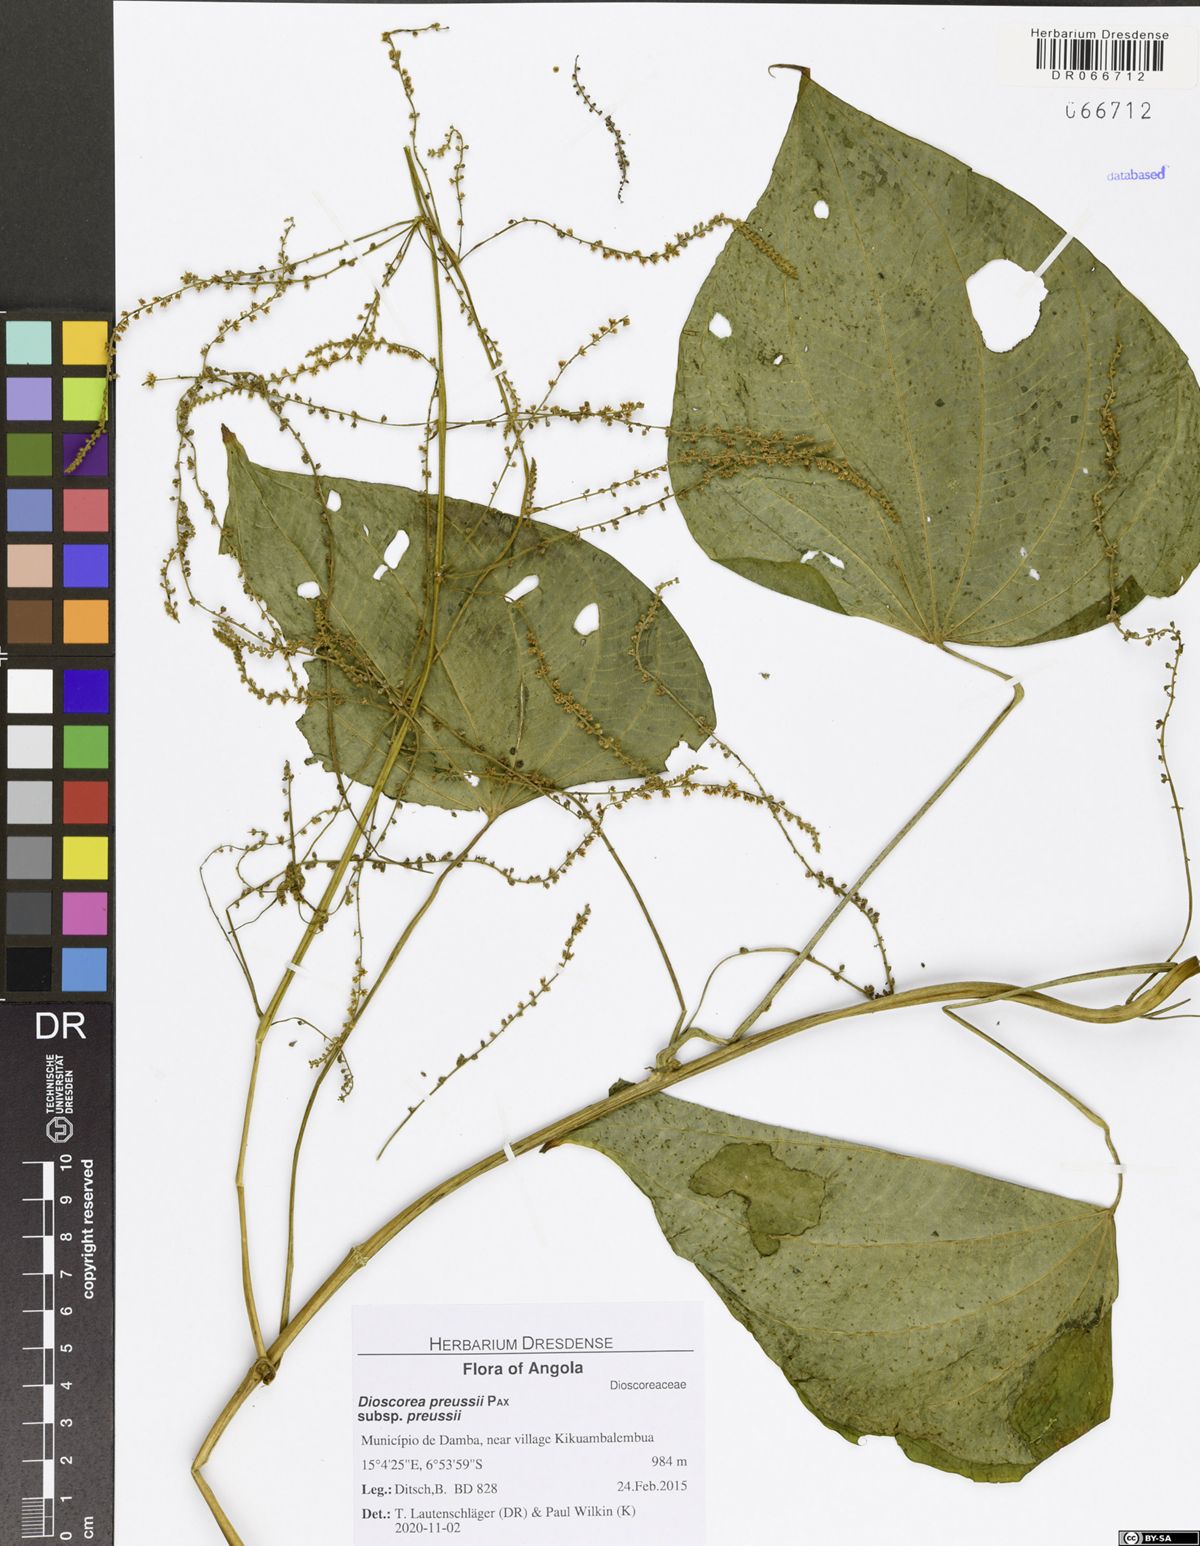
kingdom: Plantae
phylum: Tracheophyta
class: Liliopsida
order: Dioscoreales
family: Dioscoreaceae
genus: Dioscorea
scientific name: Dioscorea preussii
